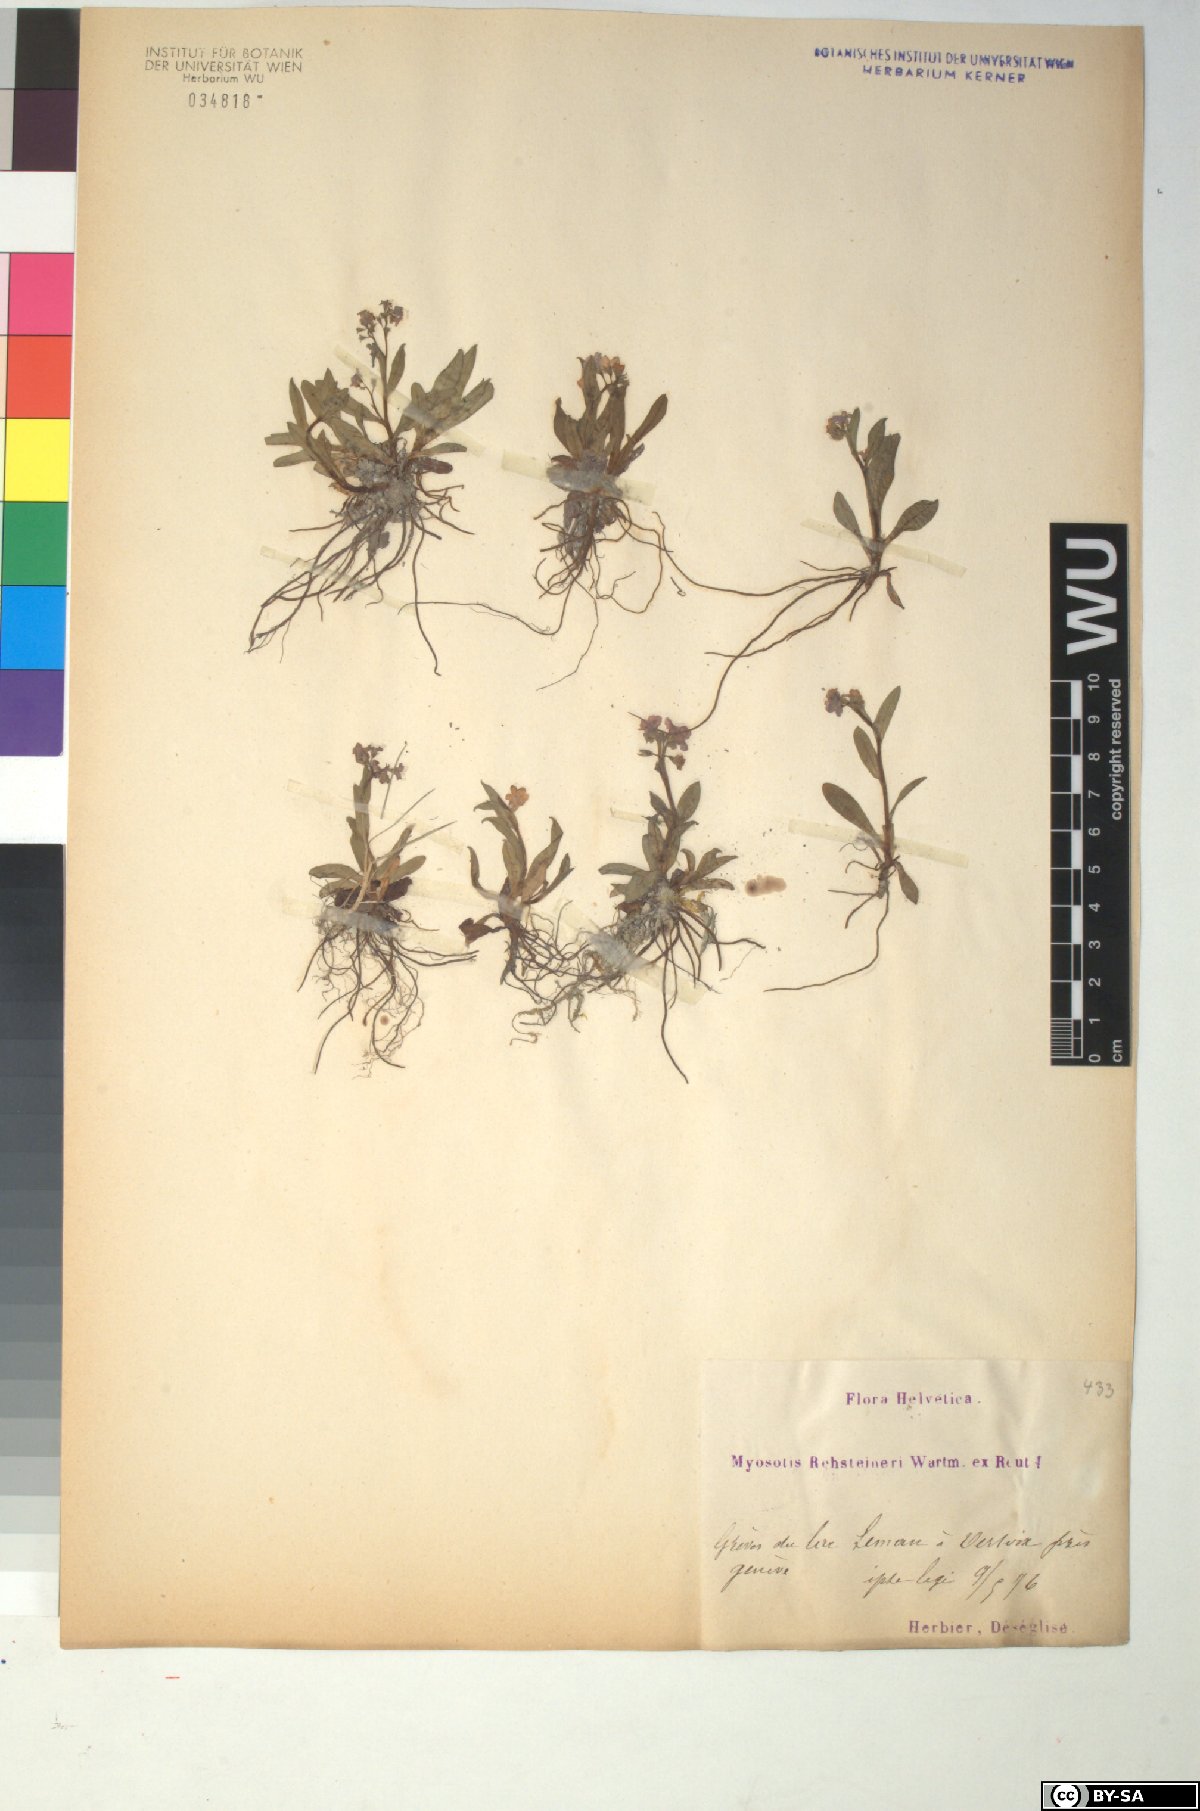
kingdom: Plantae
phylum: Tracheophyta
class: Magnoliopsida
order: Boraginales
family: Boraginaceae
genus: Myosotis
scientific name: Myosotis rehsteineri
